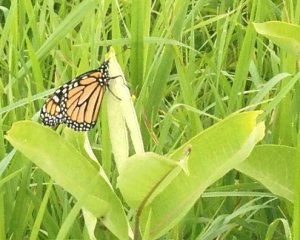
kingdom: Animalia
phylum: Arthropoda
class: Insecta
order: Lepidoptera
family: Nymphalidae
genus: Danaus
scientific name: Danaus plexippus
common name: Monarch
